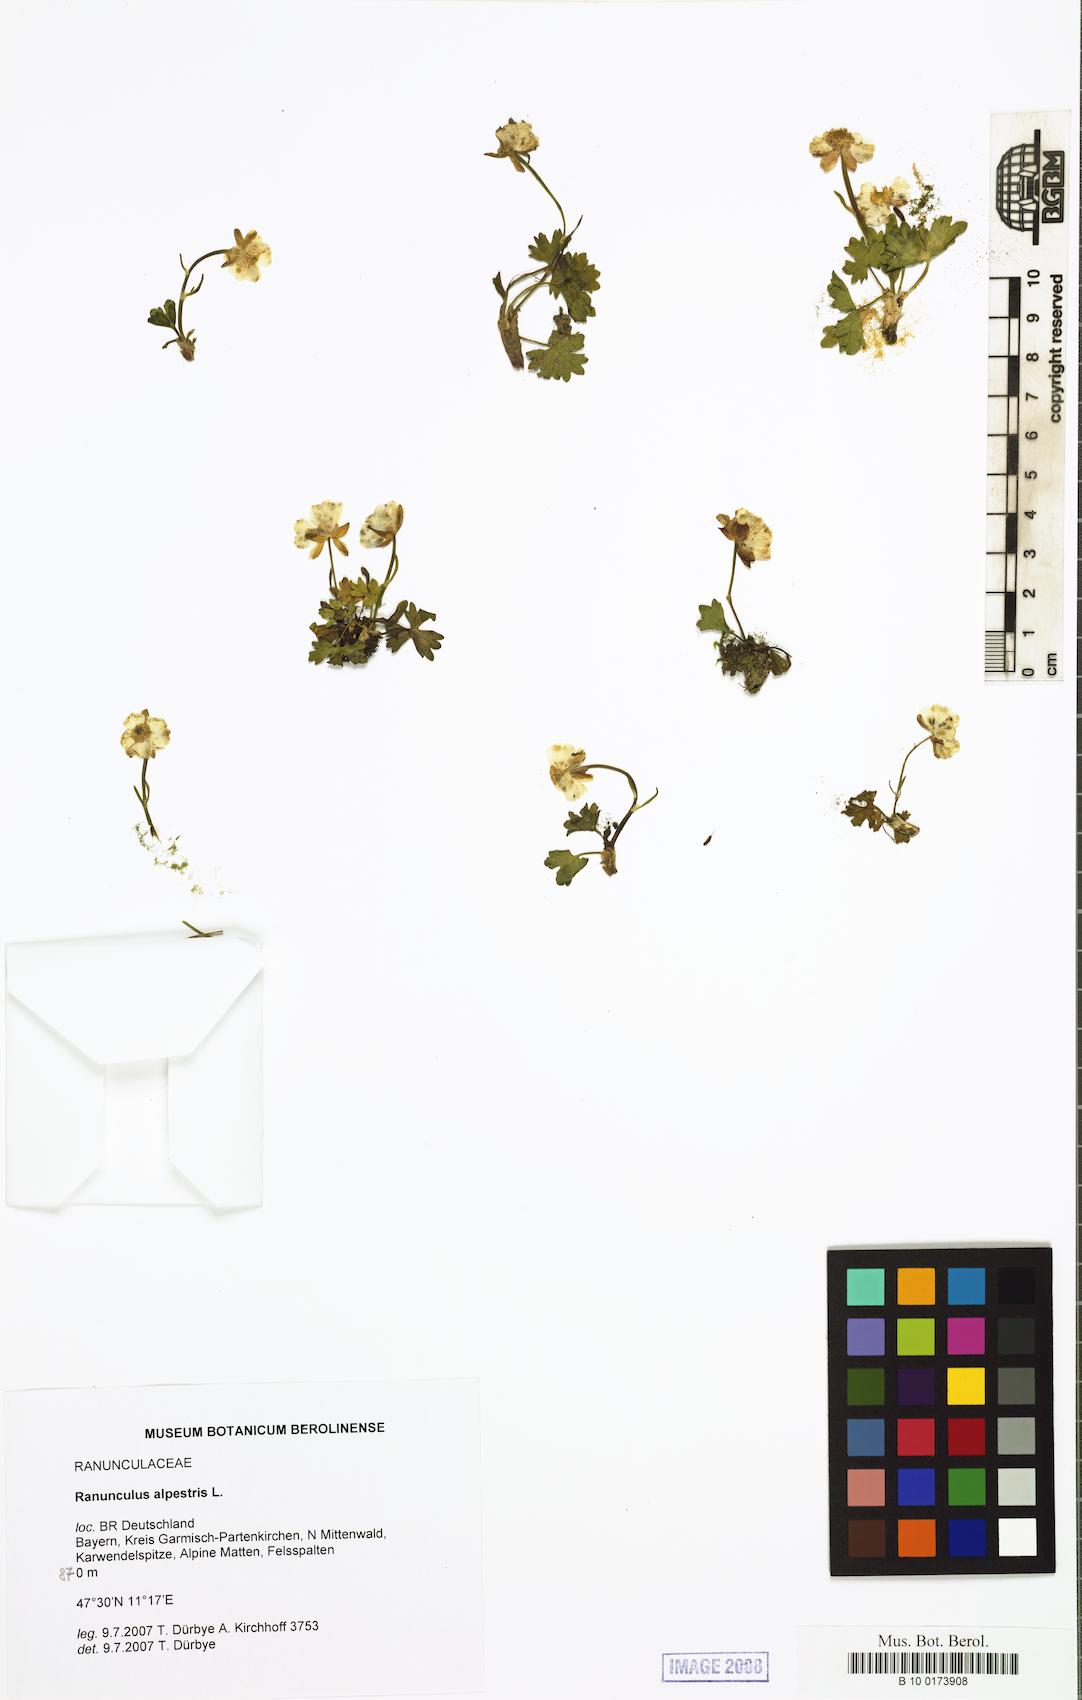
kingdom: Plantae
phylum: Tracheophyta
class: Magnoliopsida
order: Ranunculales
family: Ranunculaceae
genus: Ranunculus
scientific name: Ranunculus alpestris
